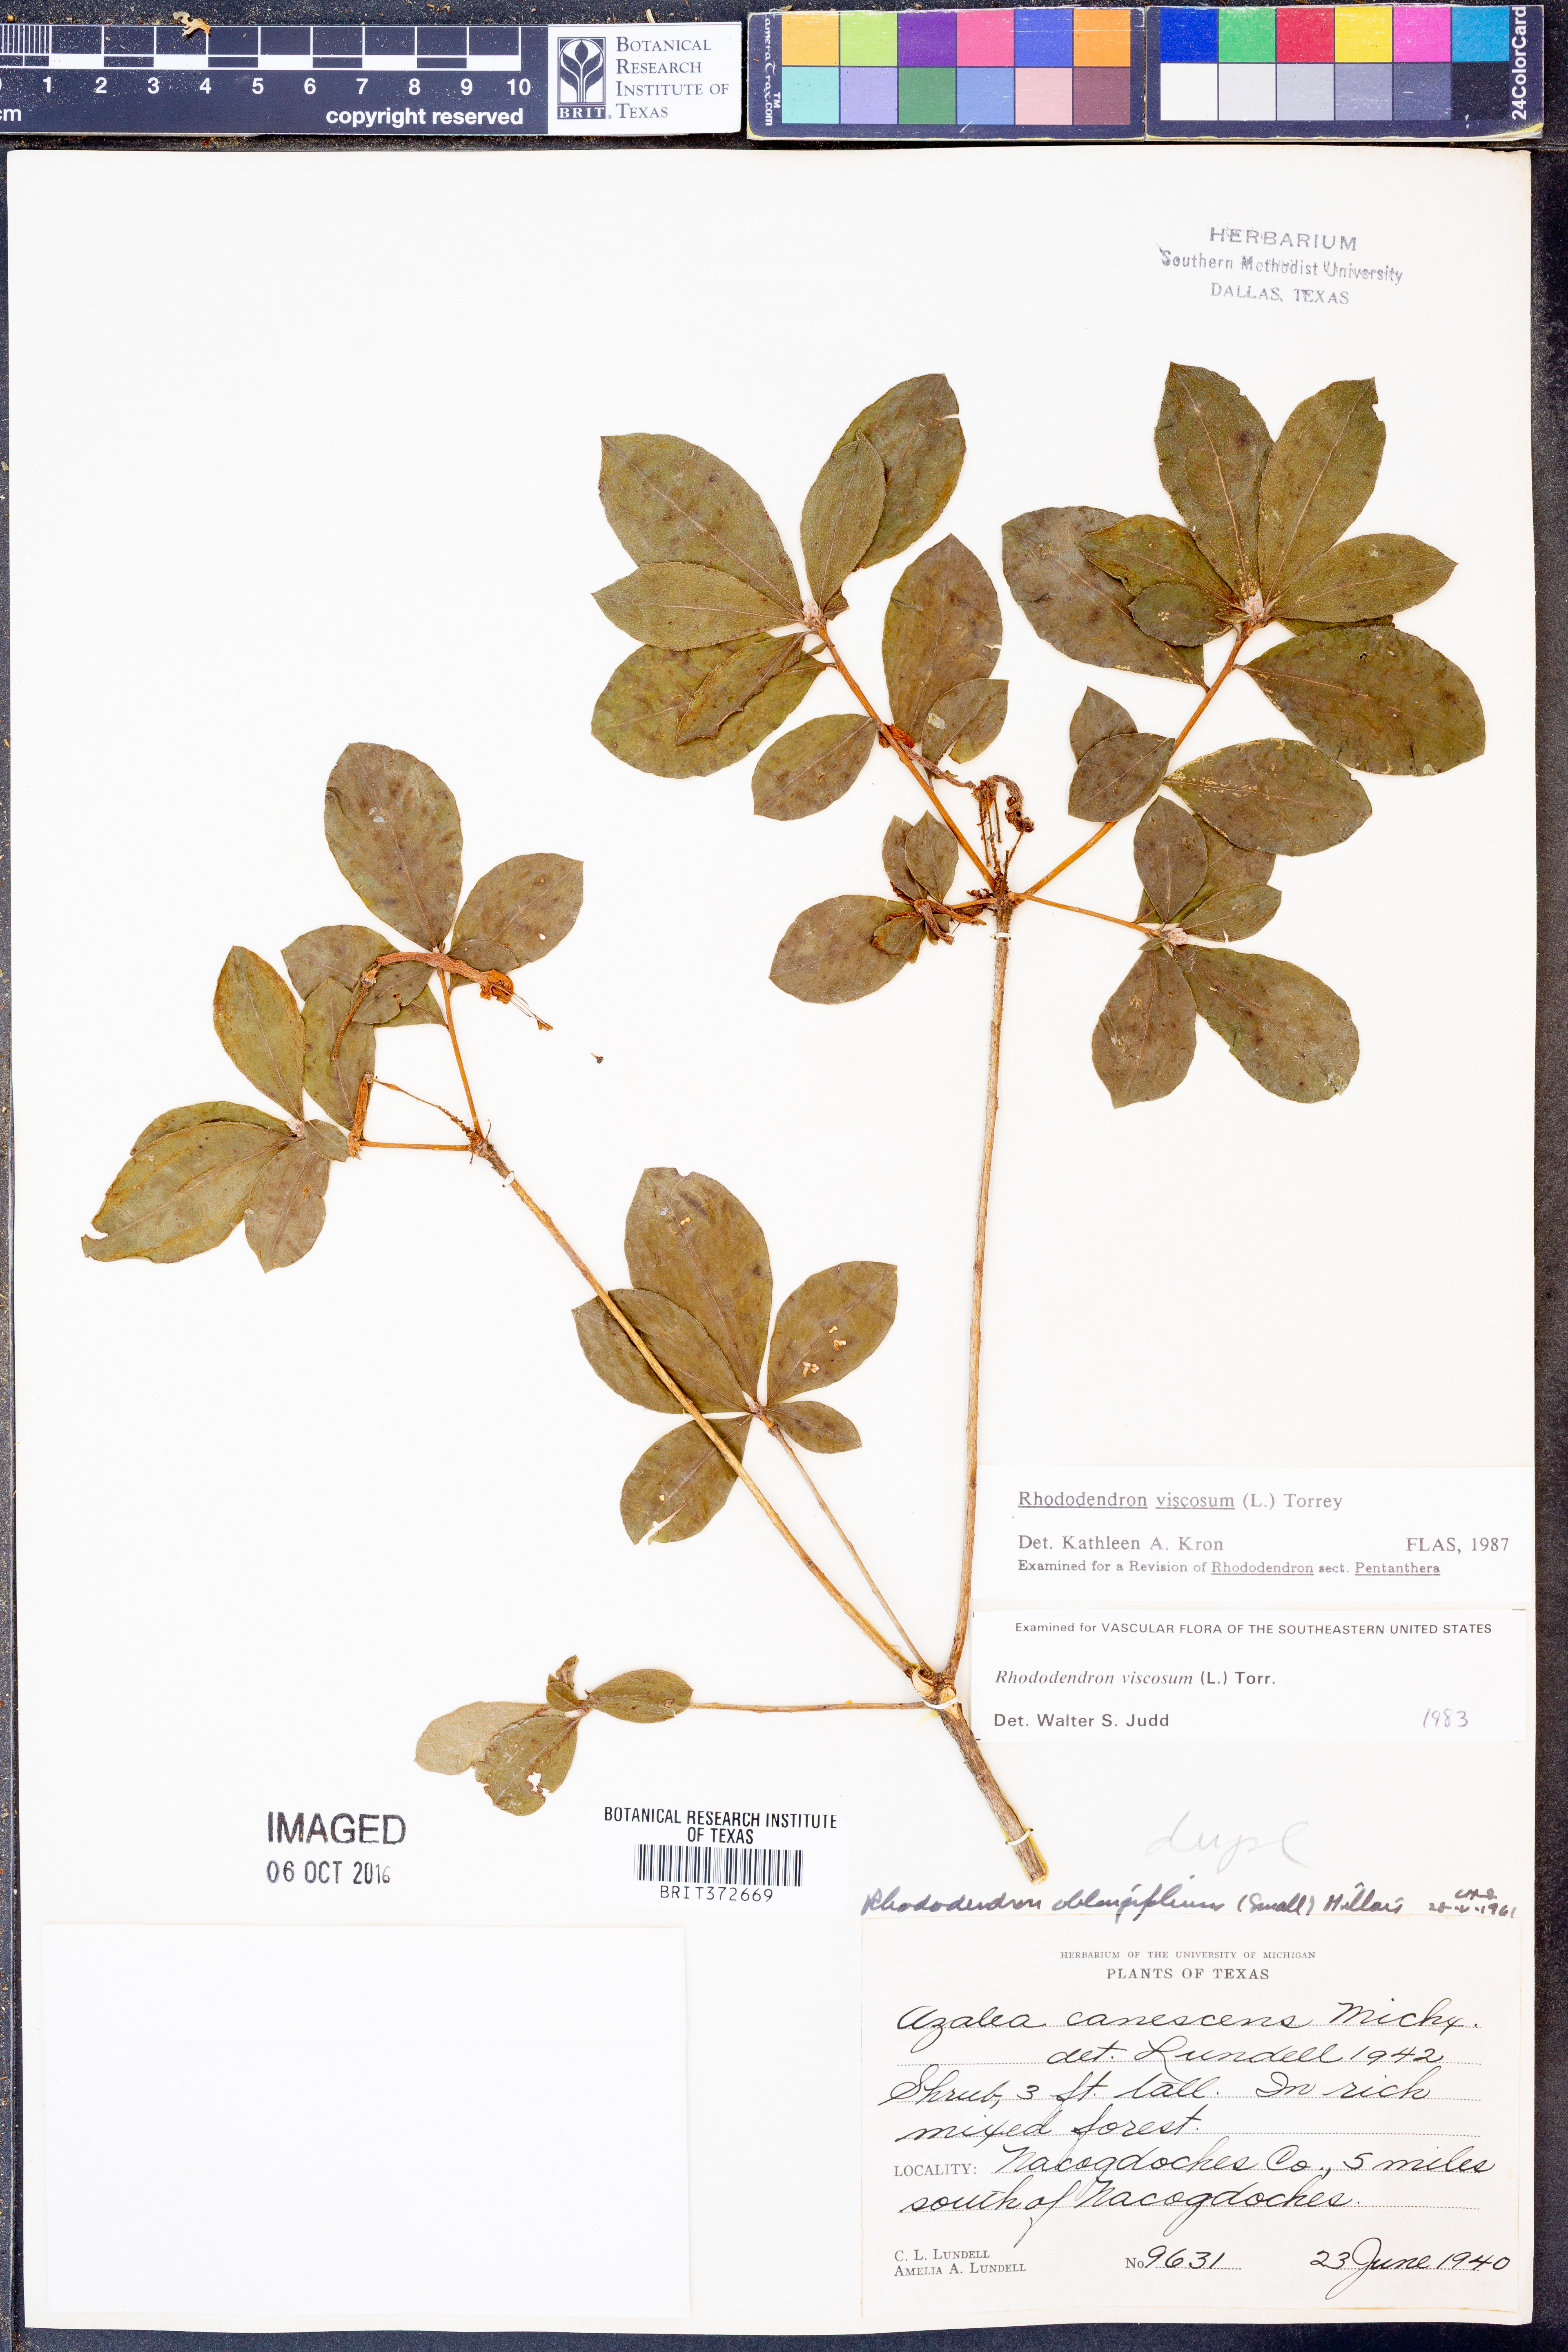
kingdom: Plantae
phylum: Tracheophyta
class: Magnoliopsida
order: Ericales
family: Ericaceae
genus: Rhododendron
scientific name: Rhododendron viscosum
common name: Clammy azalea
